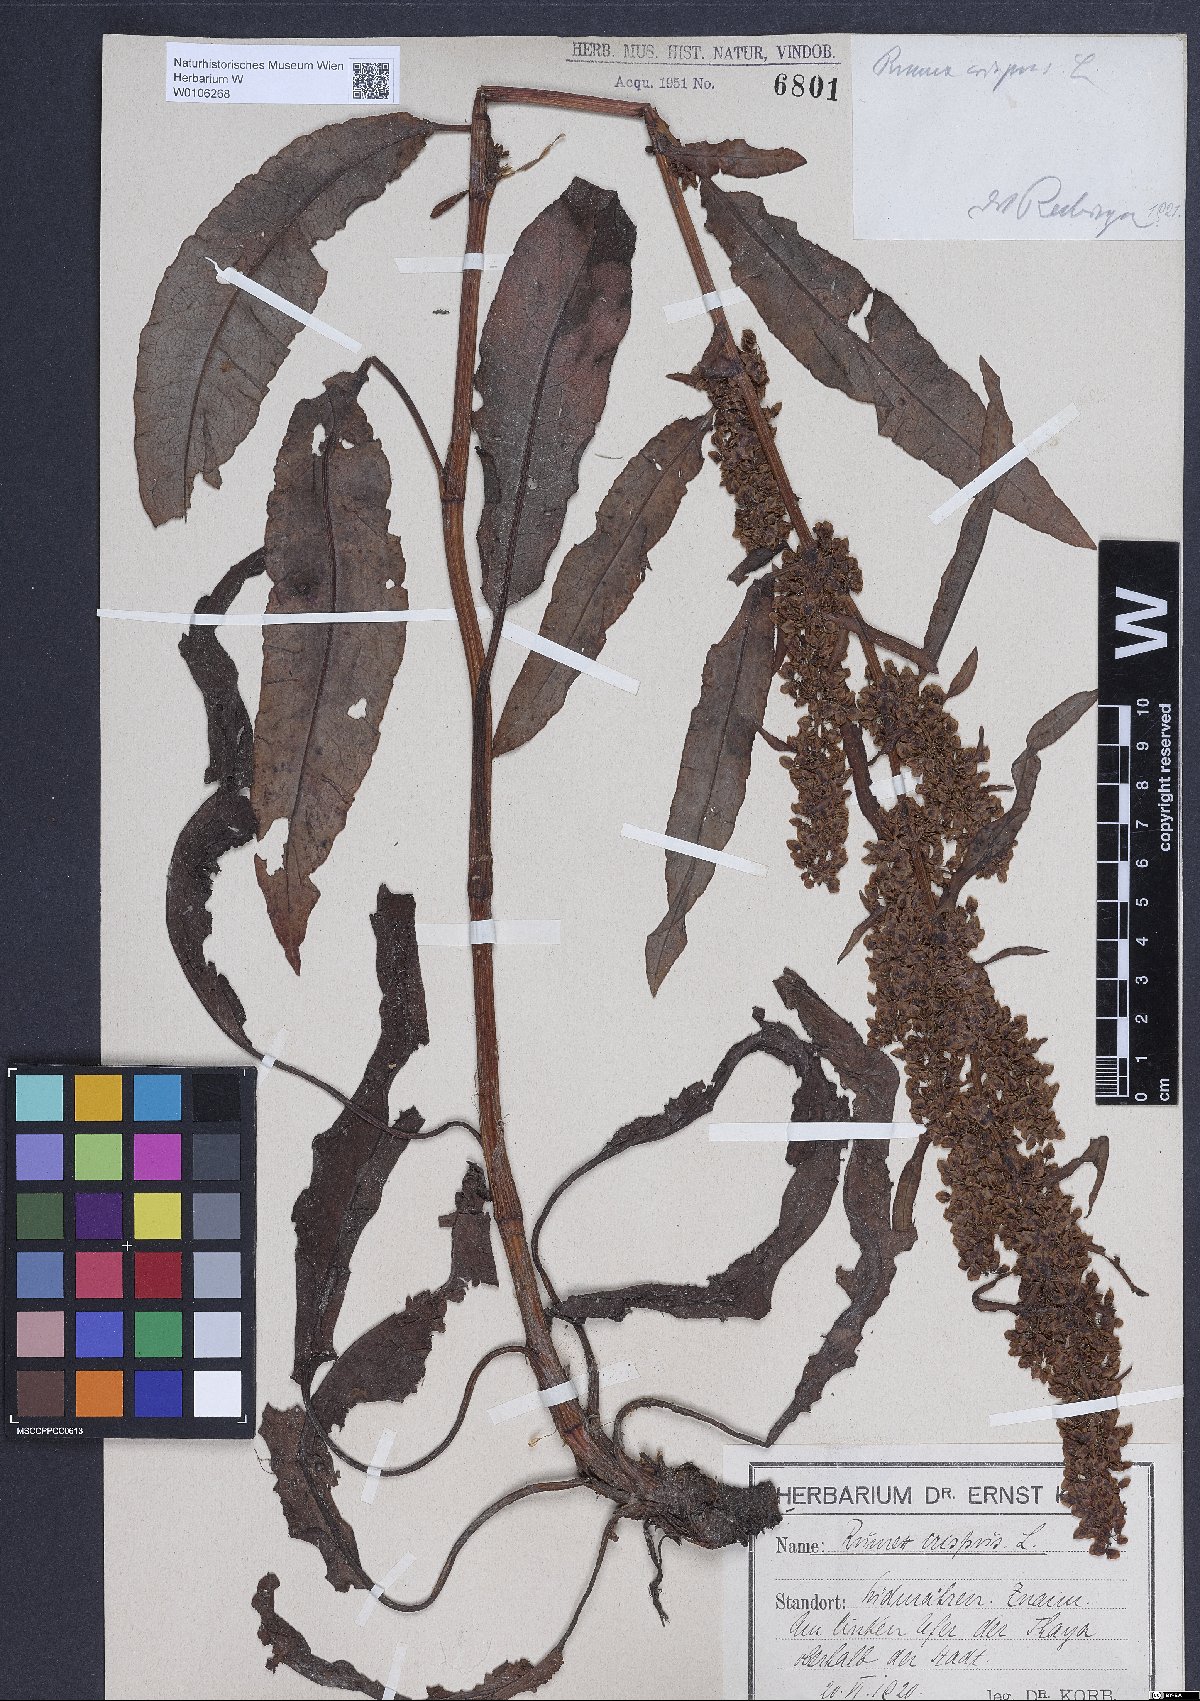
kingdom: Plantae
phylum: Tracheophyta
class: Magnoliopsida
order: Caryophyllales
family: Polygonaceae
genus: Rumex
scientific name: Rumex crispus
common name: Curled dock
